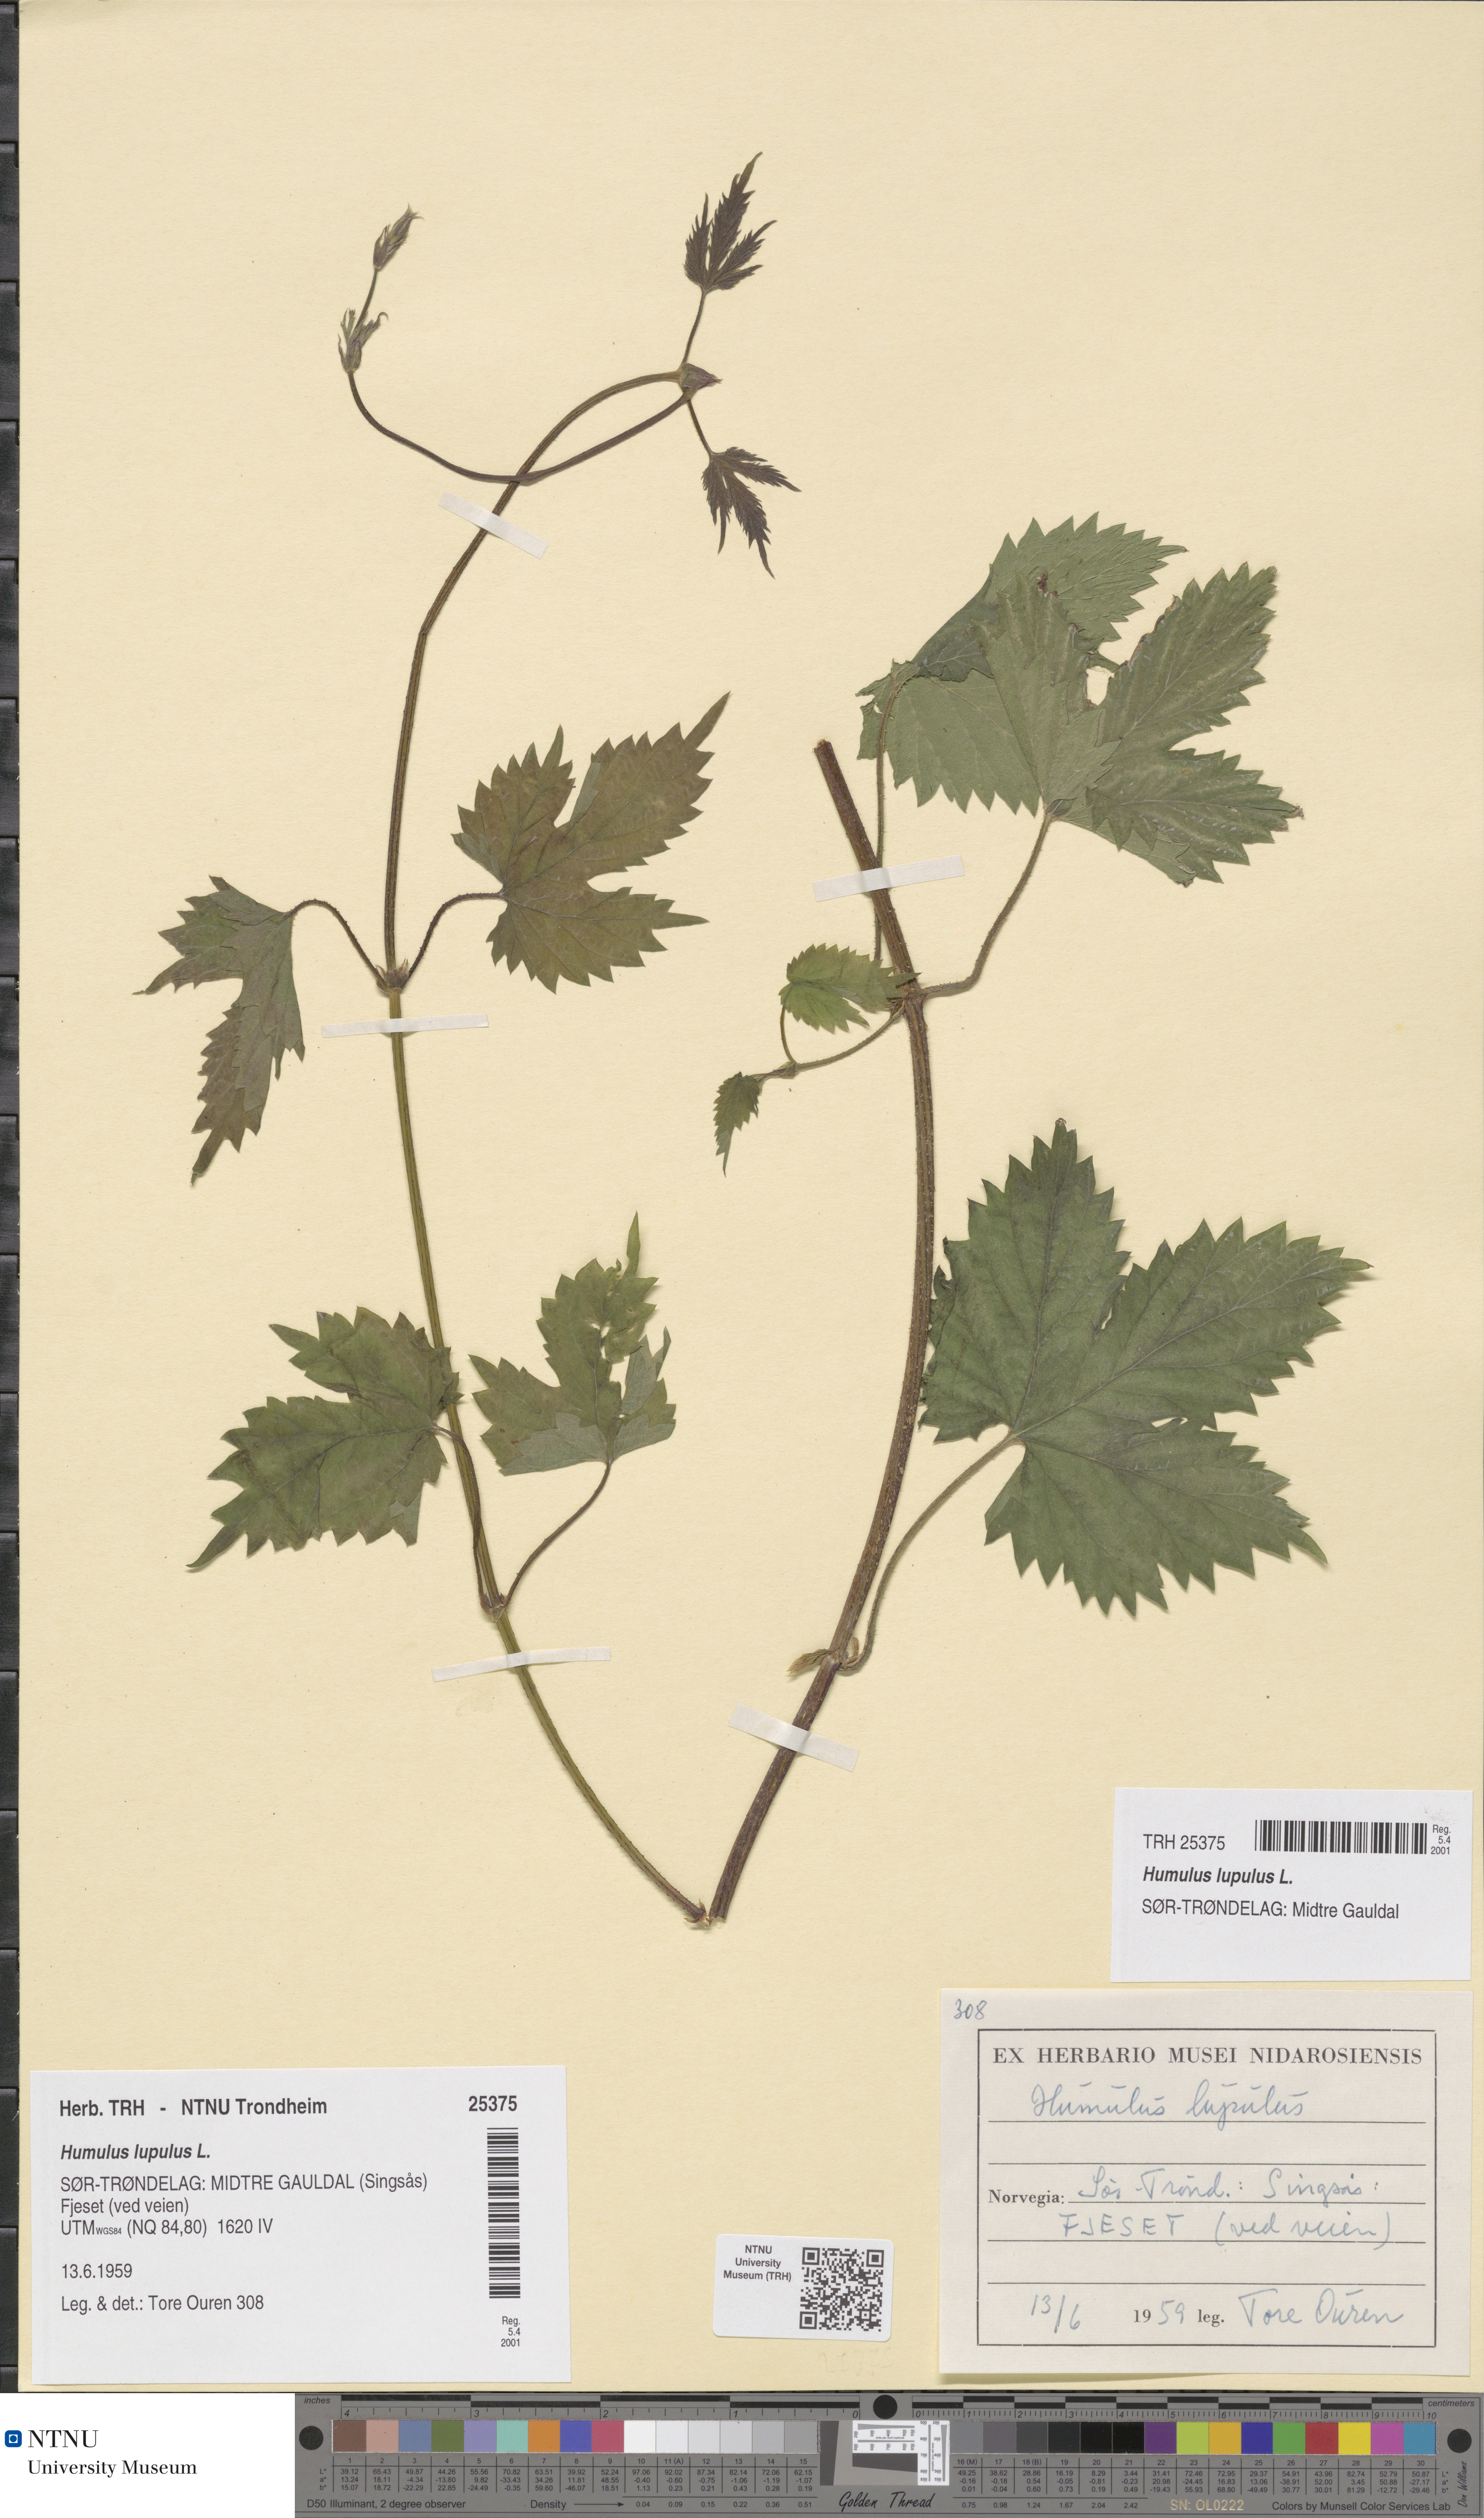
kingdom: Plantae
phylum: Tracheophyta
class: Magnoliopsida
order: Rosales
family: Cannabaceae
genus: Humulus
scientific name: Humulus lupulus
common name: Hop
